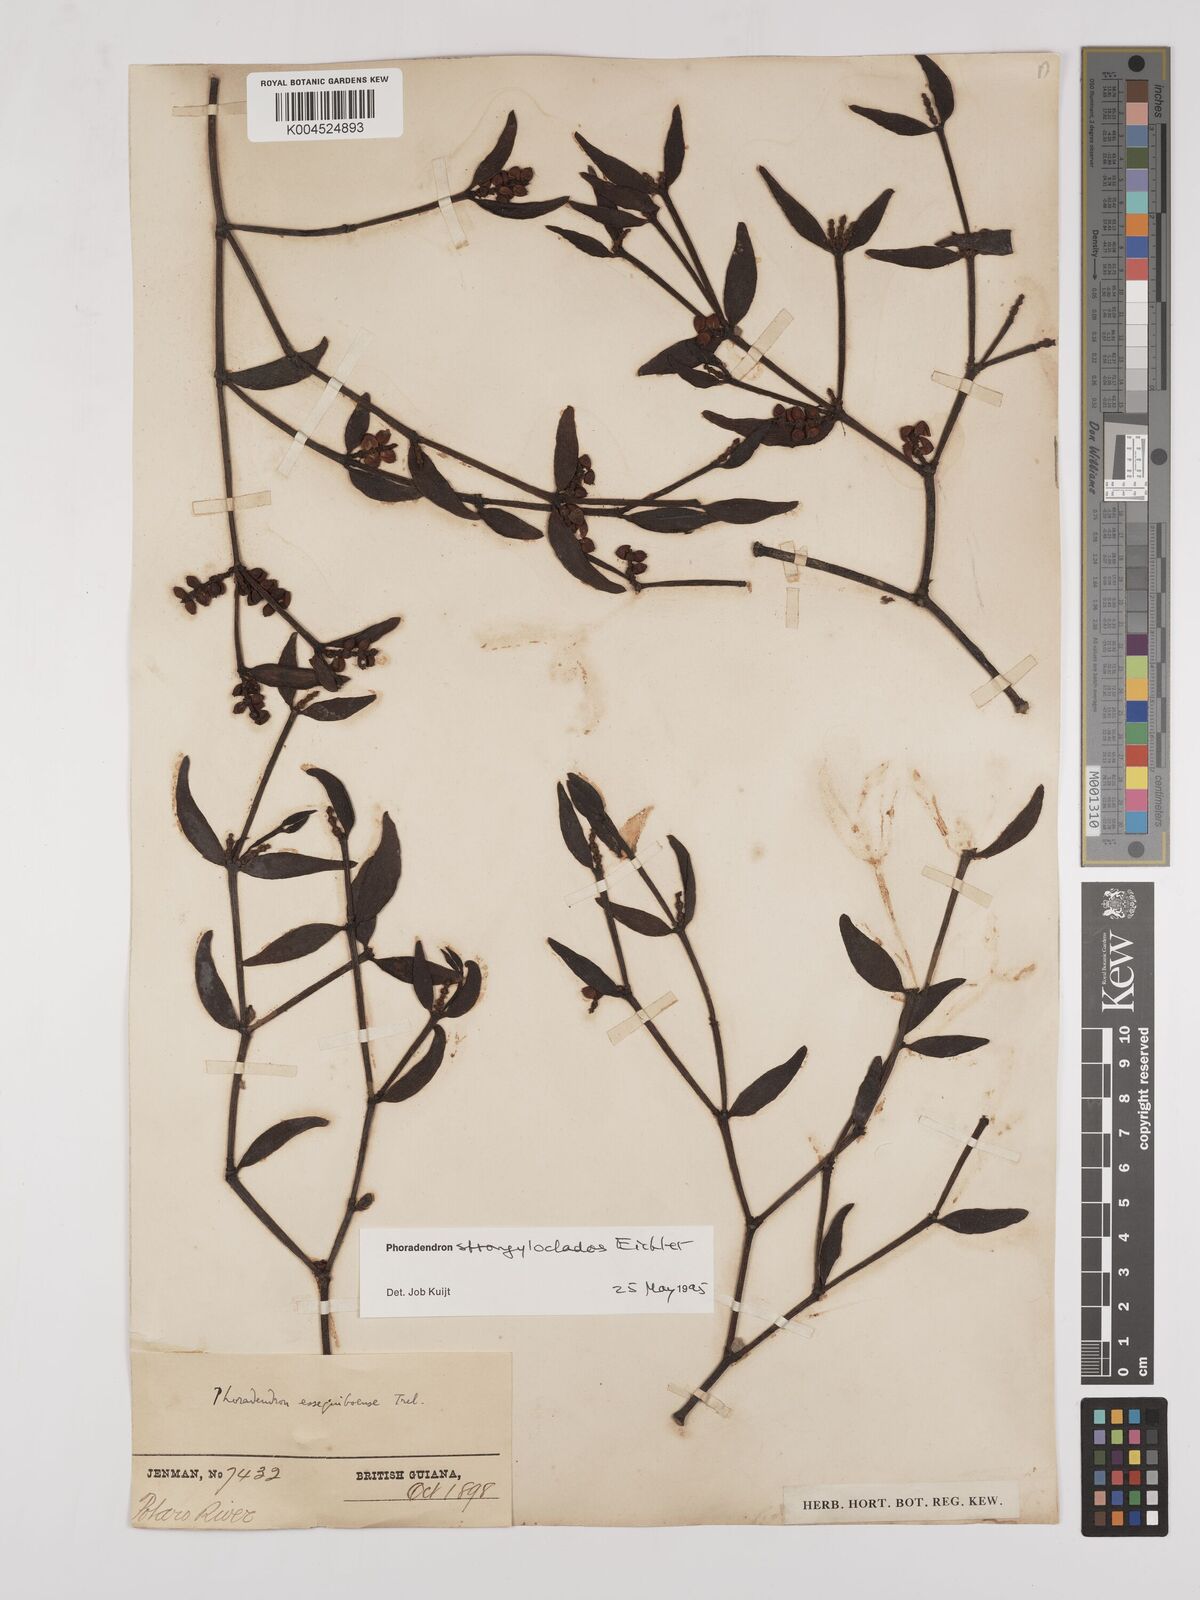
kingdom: Plantae
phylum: Tracheophyta
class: Magnoliopsida
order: Santalales
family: Viscaceae
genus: Phoradendron
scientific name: Phoradendron strongyloclados
